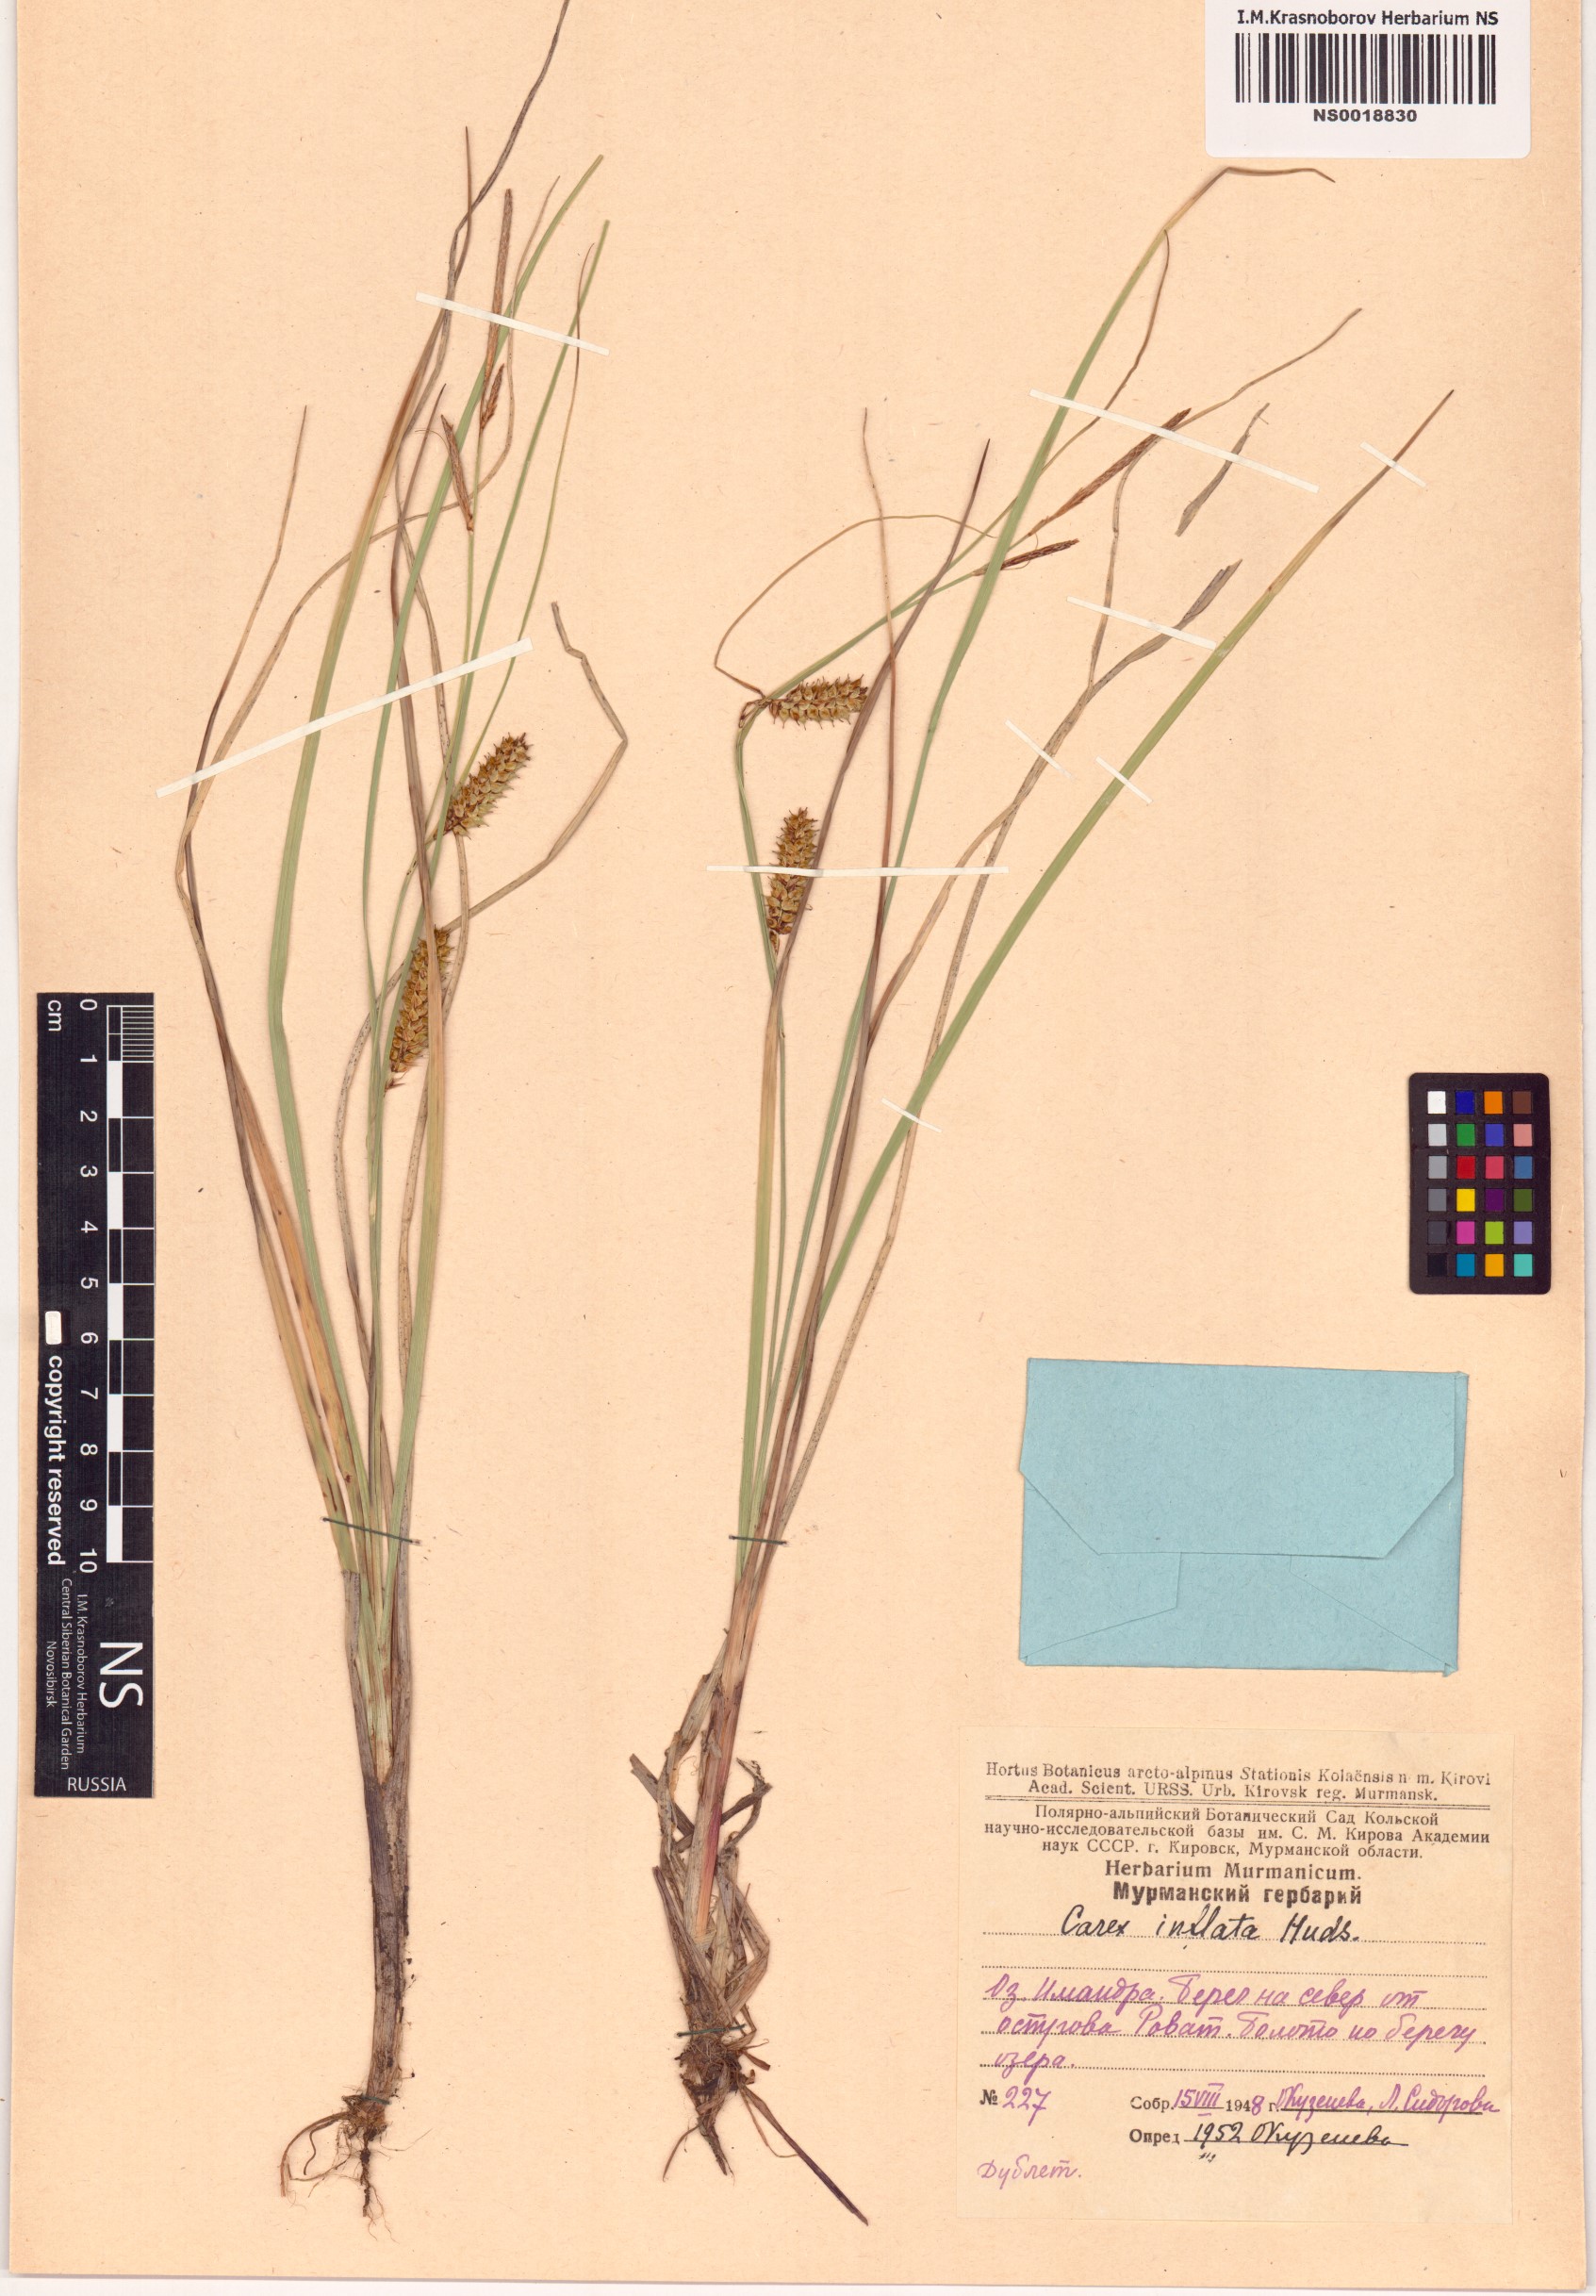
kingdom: Plantae
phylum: Tracheophyta
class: Liliopsida
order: Poales
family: Cyperaceae
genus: Carex
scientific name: Carex rostrata
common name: Bottle sedge
